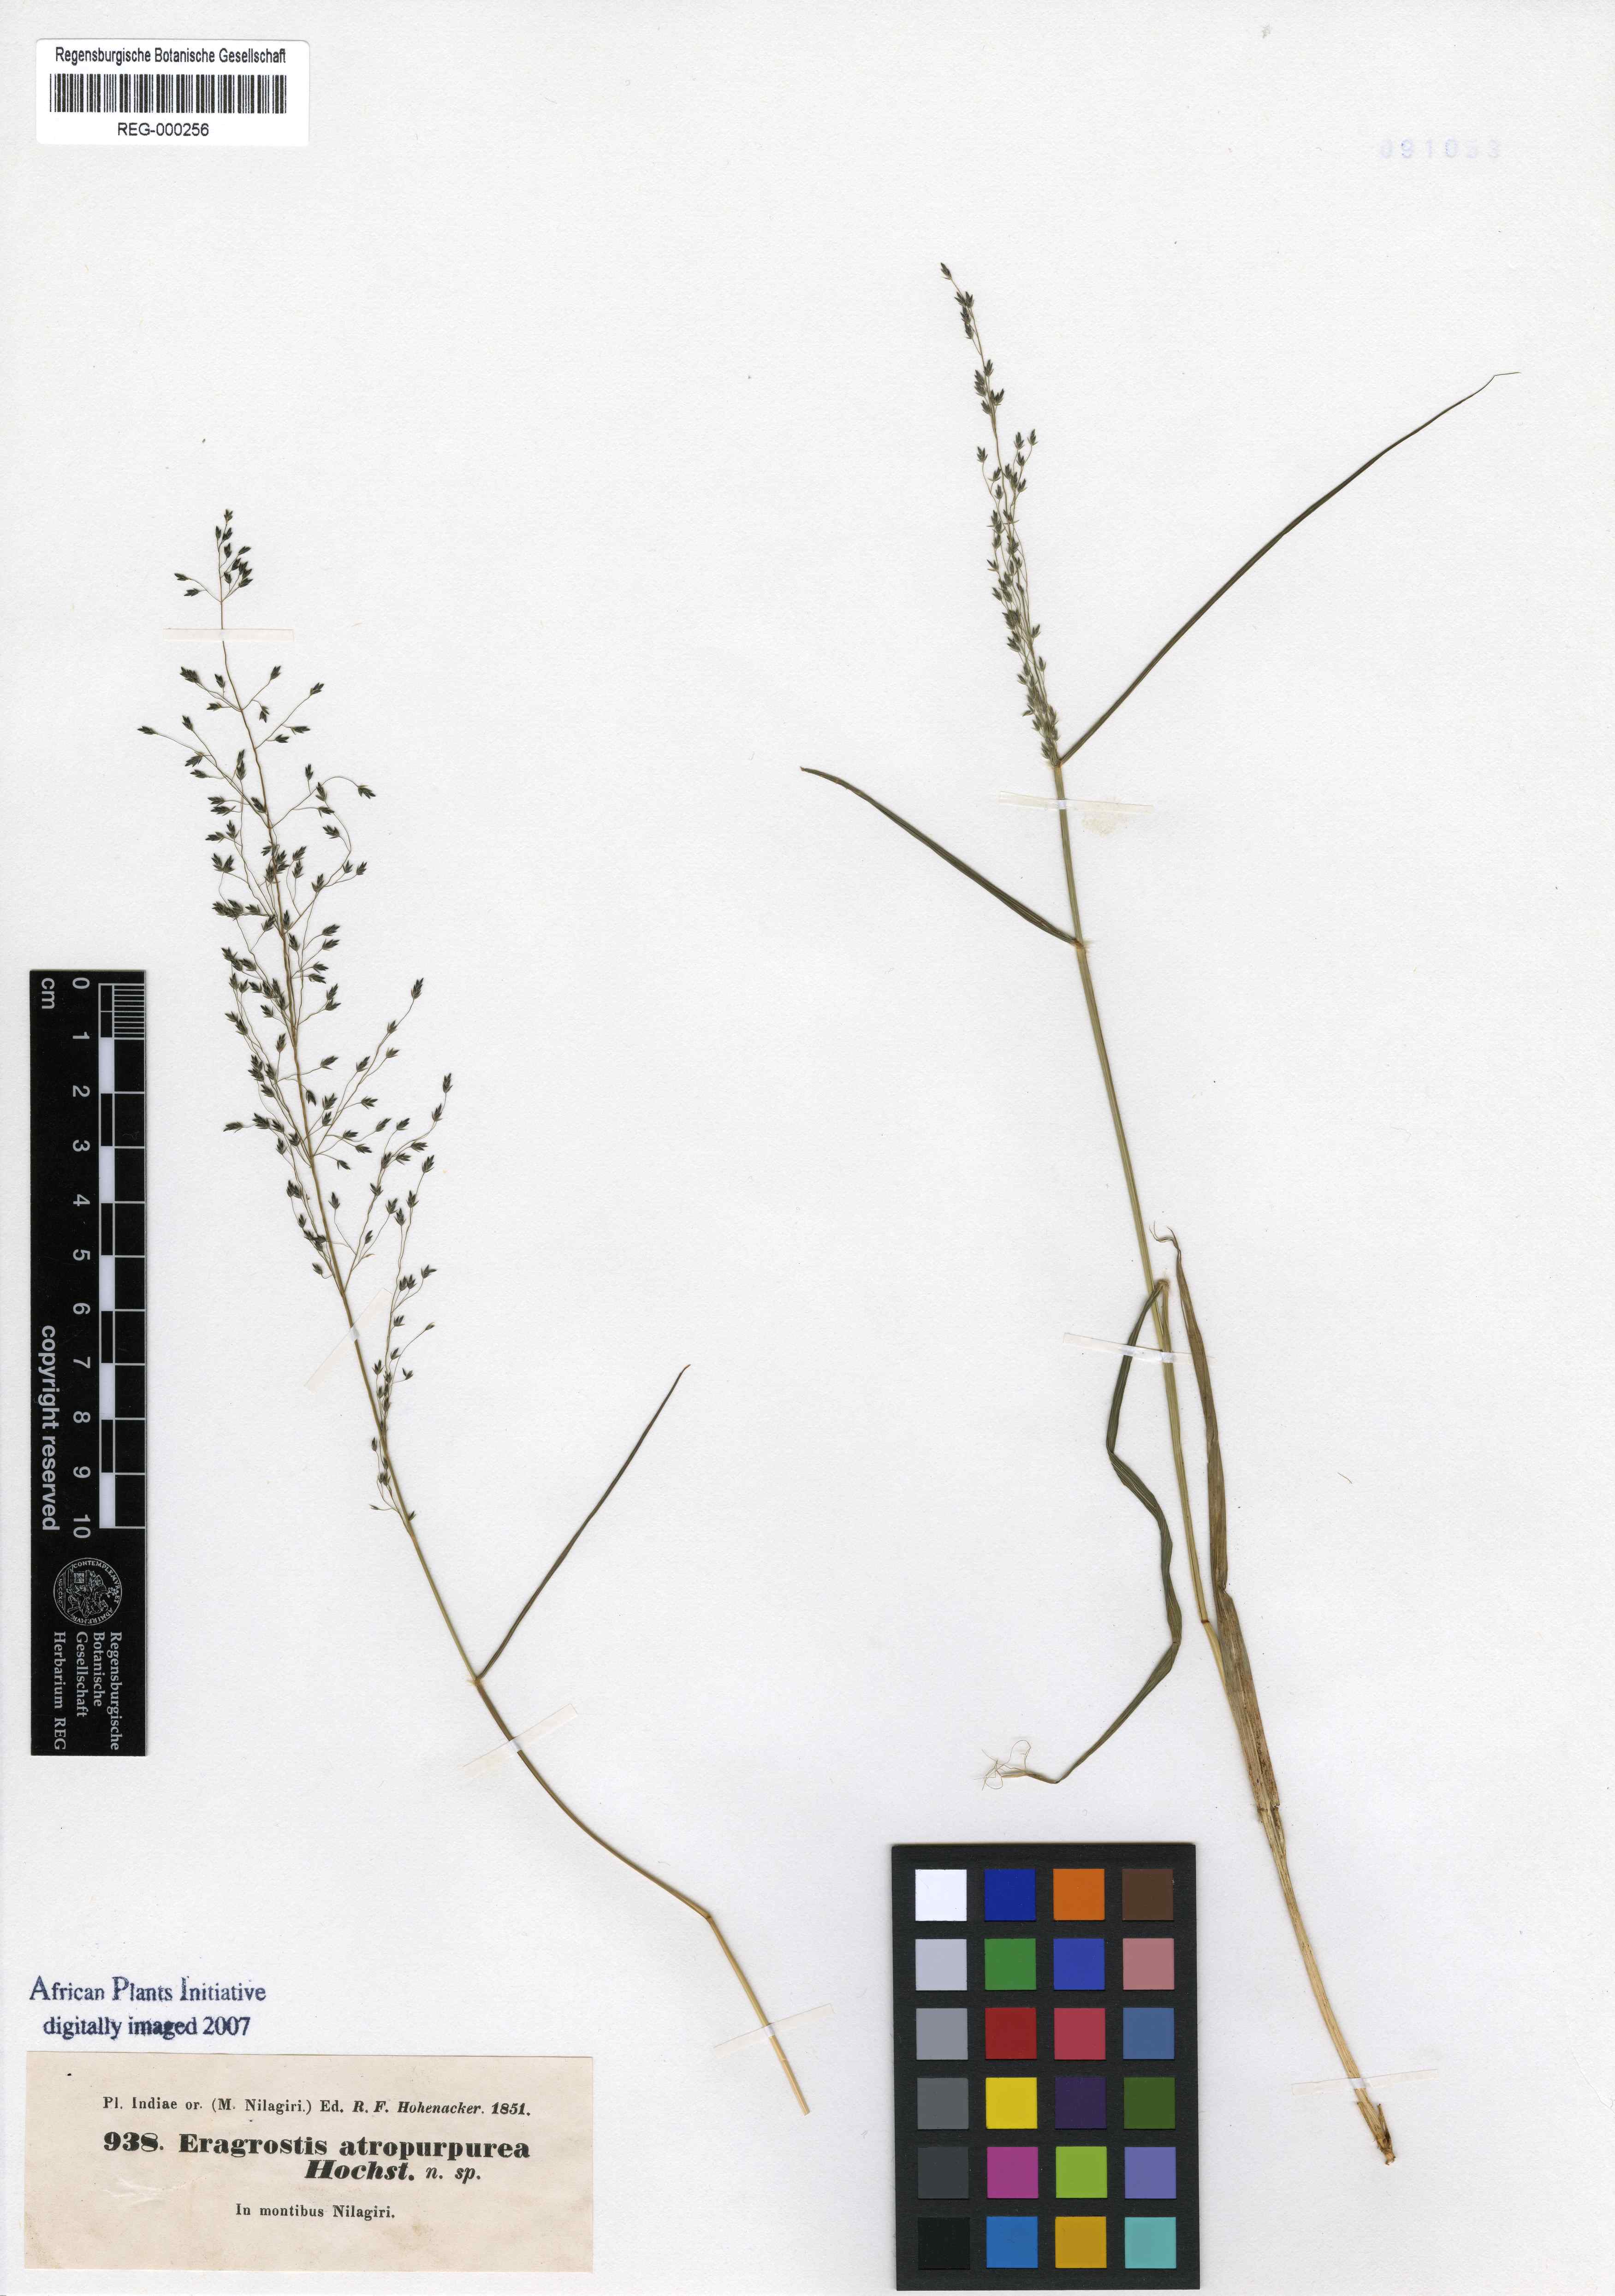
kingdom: Plantae
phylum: Tracheophyta
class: Liliopsida
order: Poales
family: Poaceae
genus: Eragrostis
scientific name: Eragrostis nigra
